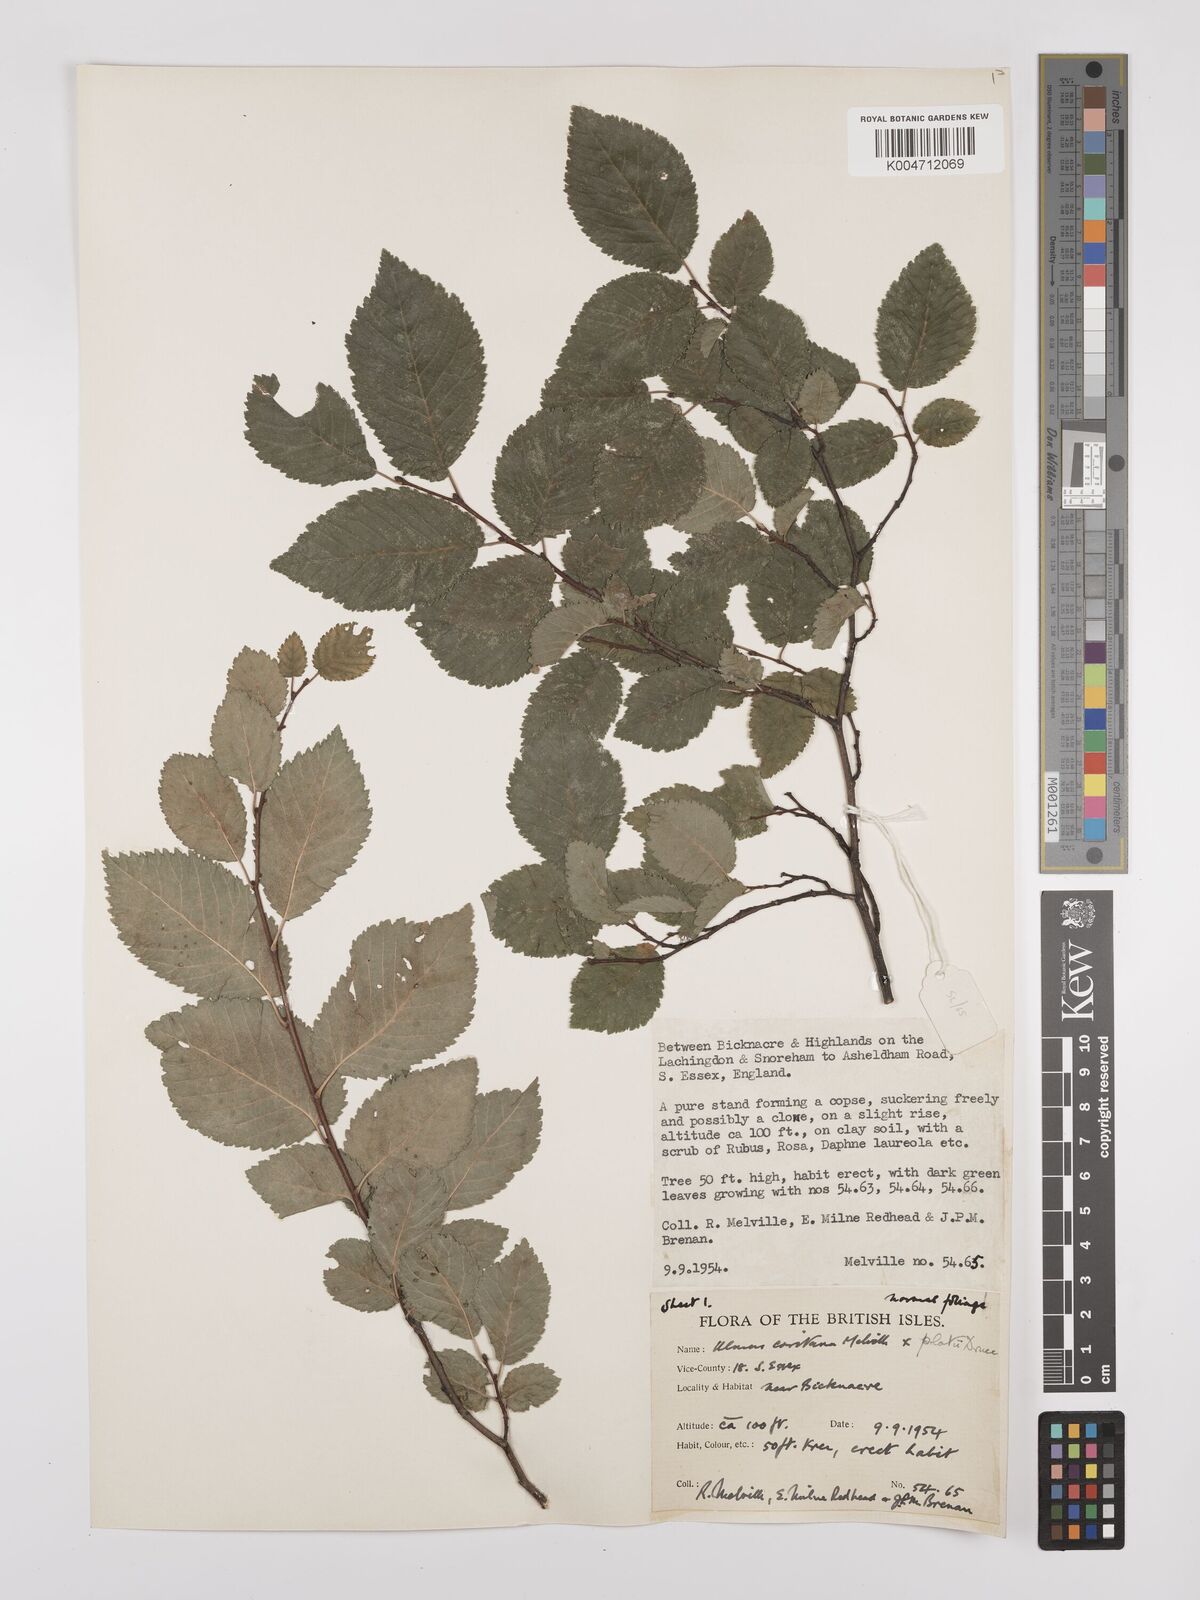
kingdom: Plantae
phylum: Tracheophyta
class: Magnoliopsida
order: Rosales
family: Ulmaceae
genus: Ulmus
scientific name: Ulmus minor
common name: Small-leaved elm
